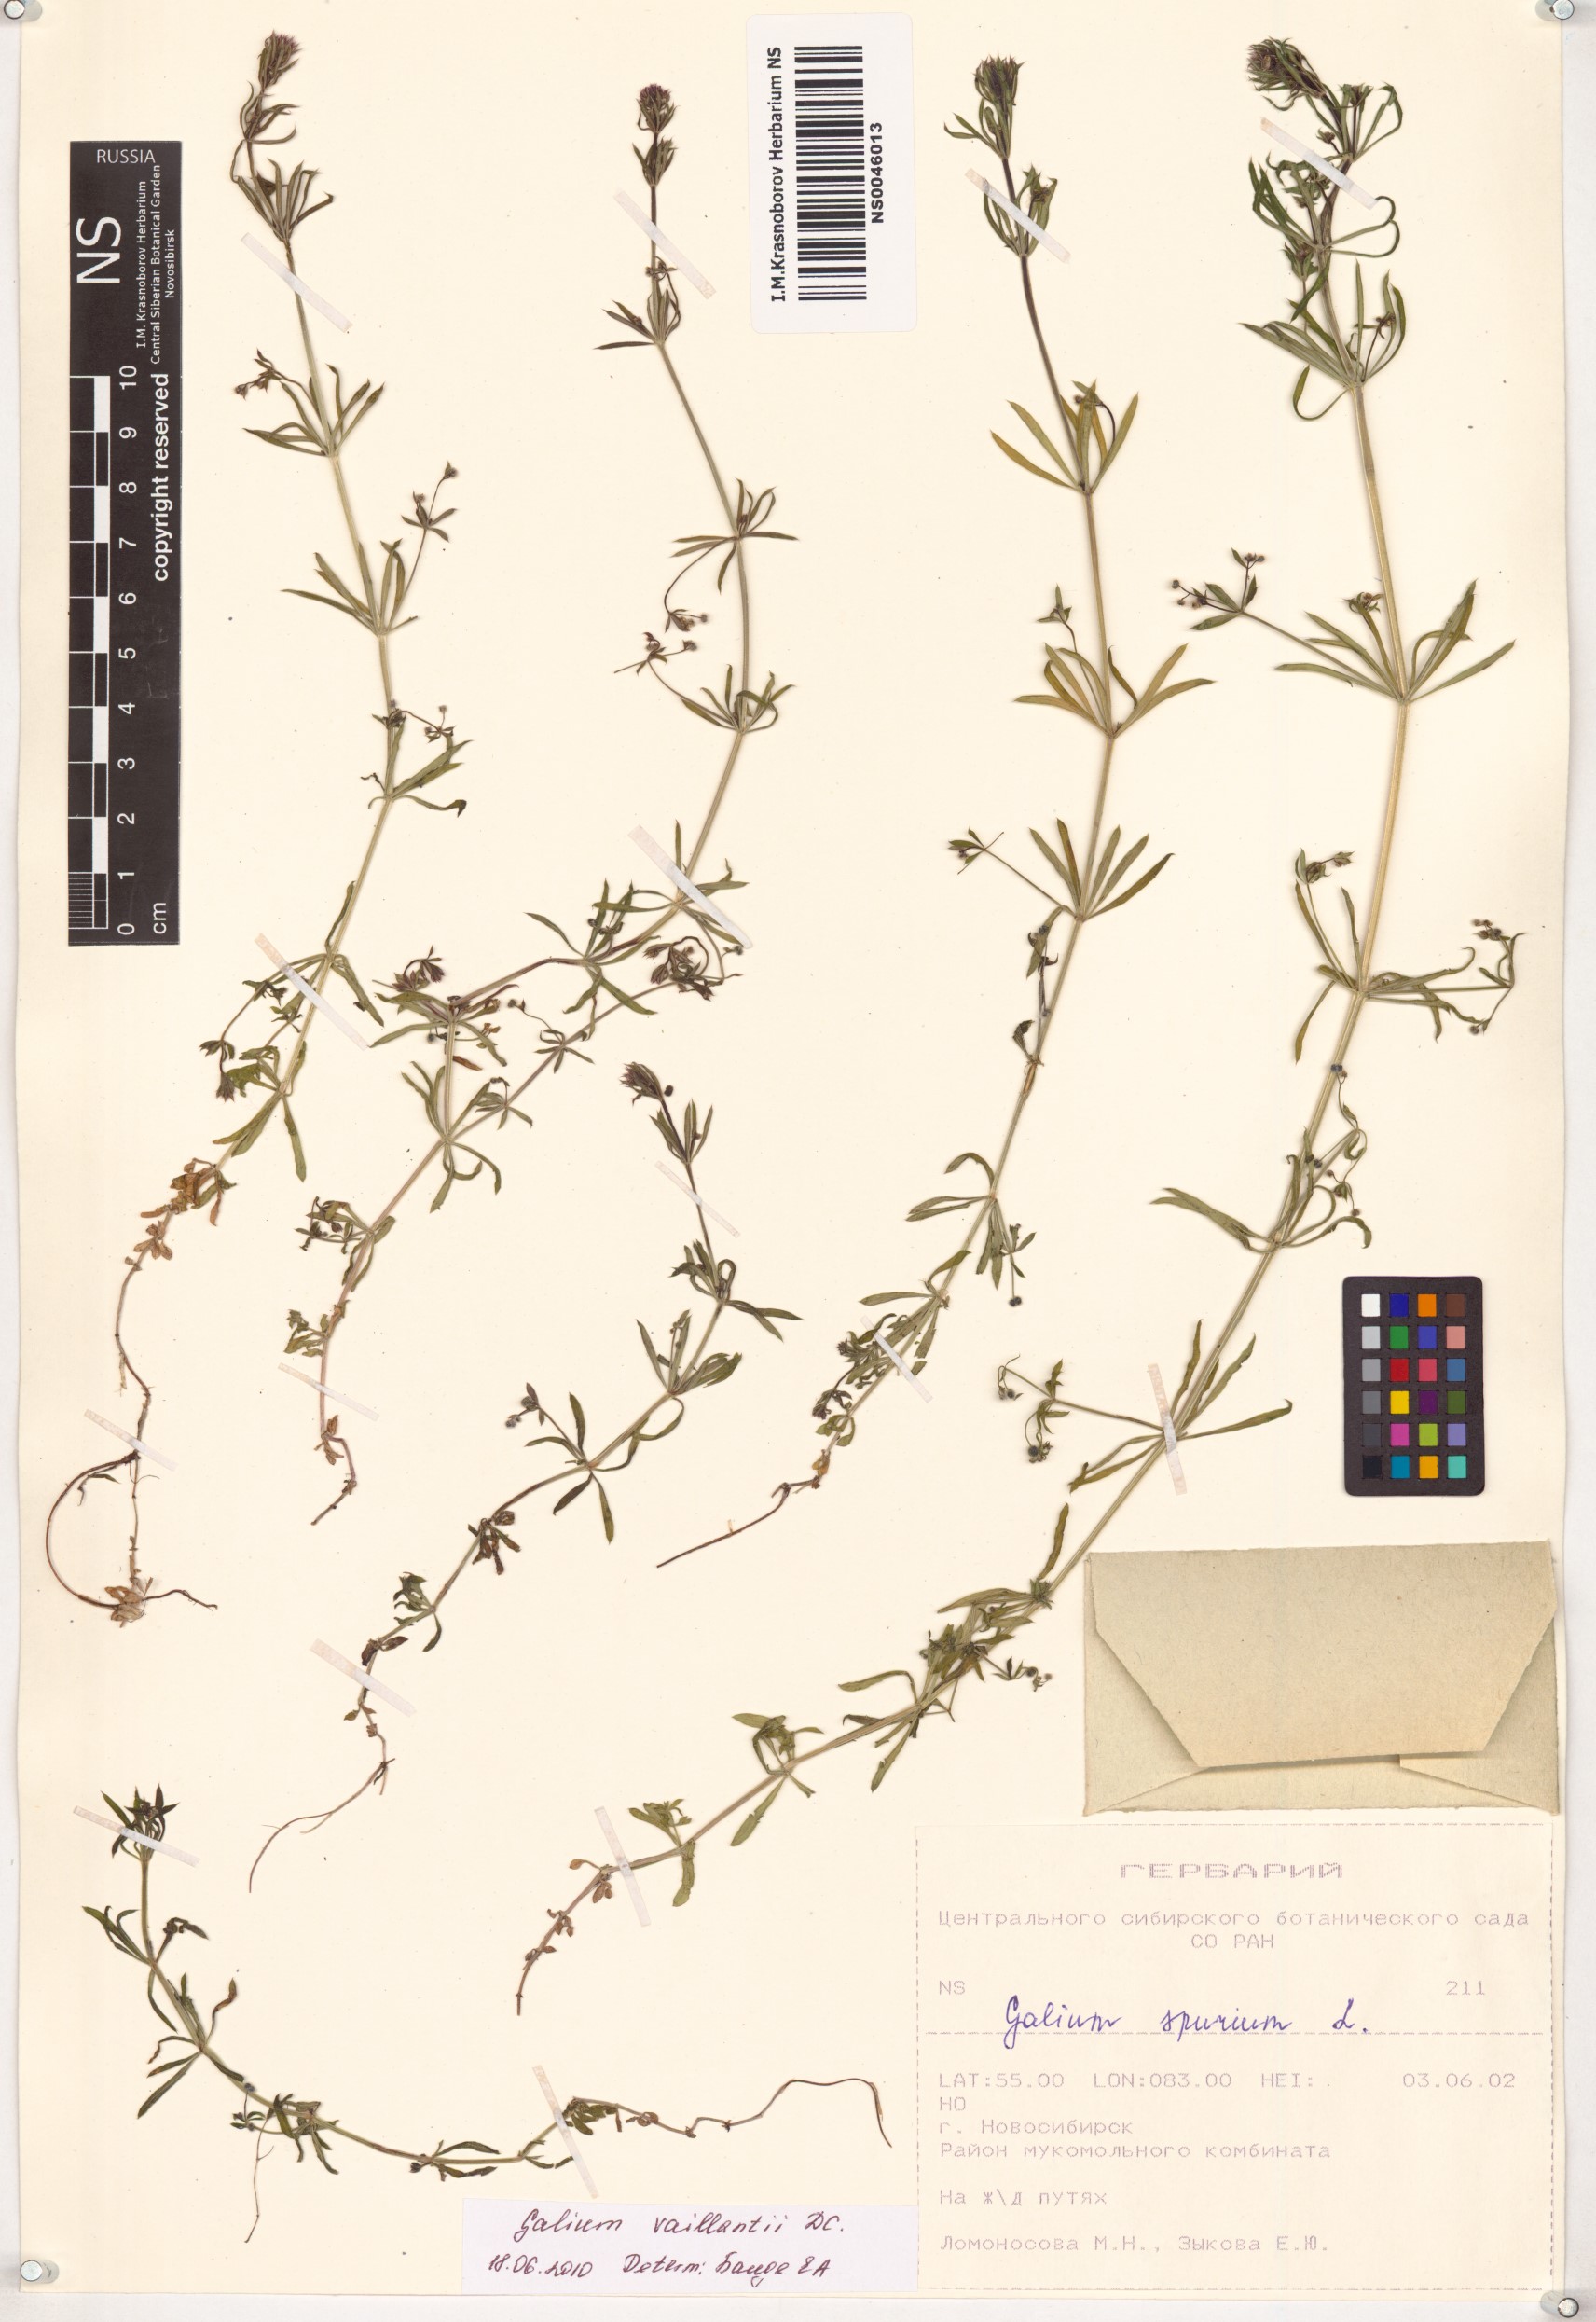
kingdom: Plantae
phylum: Tracheophyta
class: Magnoliopsida
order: Gentianales
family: Rubiaceae
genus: Galium
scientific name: Galium spurium
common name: False cleavers
